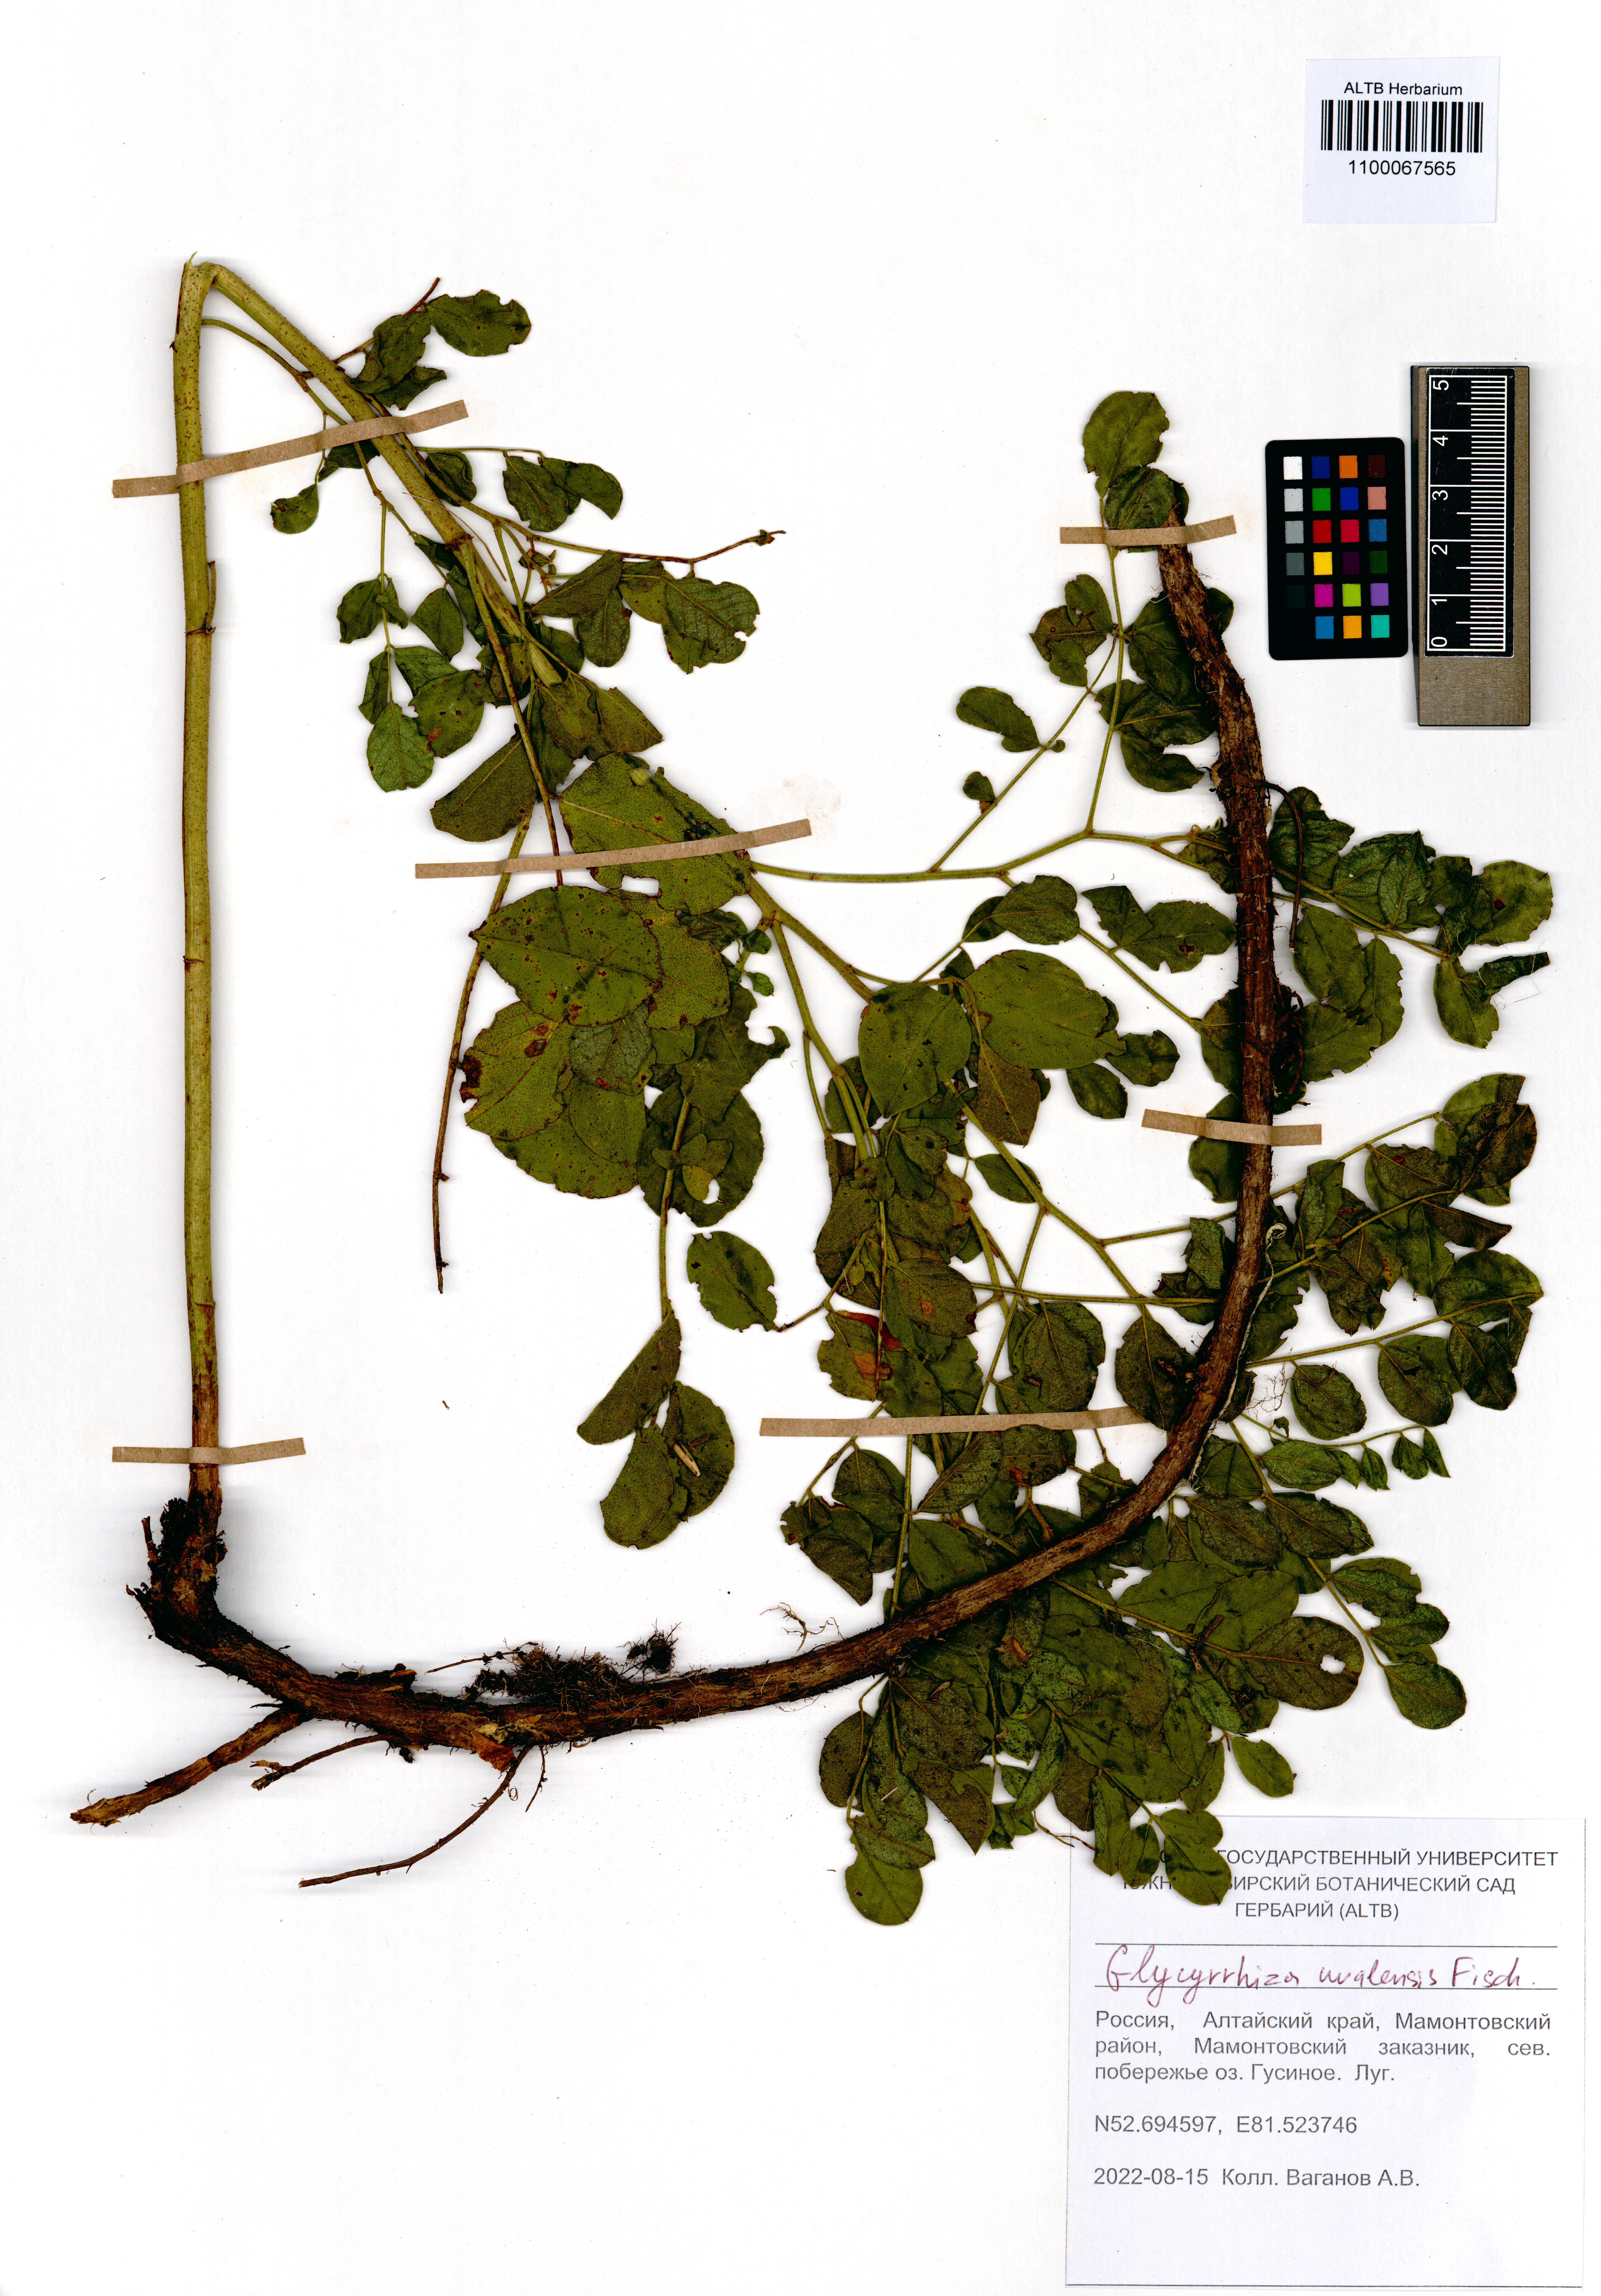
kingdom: Plantae
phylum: Tracheophyta
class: Magnoliopsida
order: Fabales
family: Fabaceae
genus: Glycyrrhiza
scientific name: Glycyrrhiza uralensis
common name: Chinese licorice
